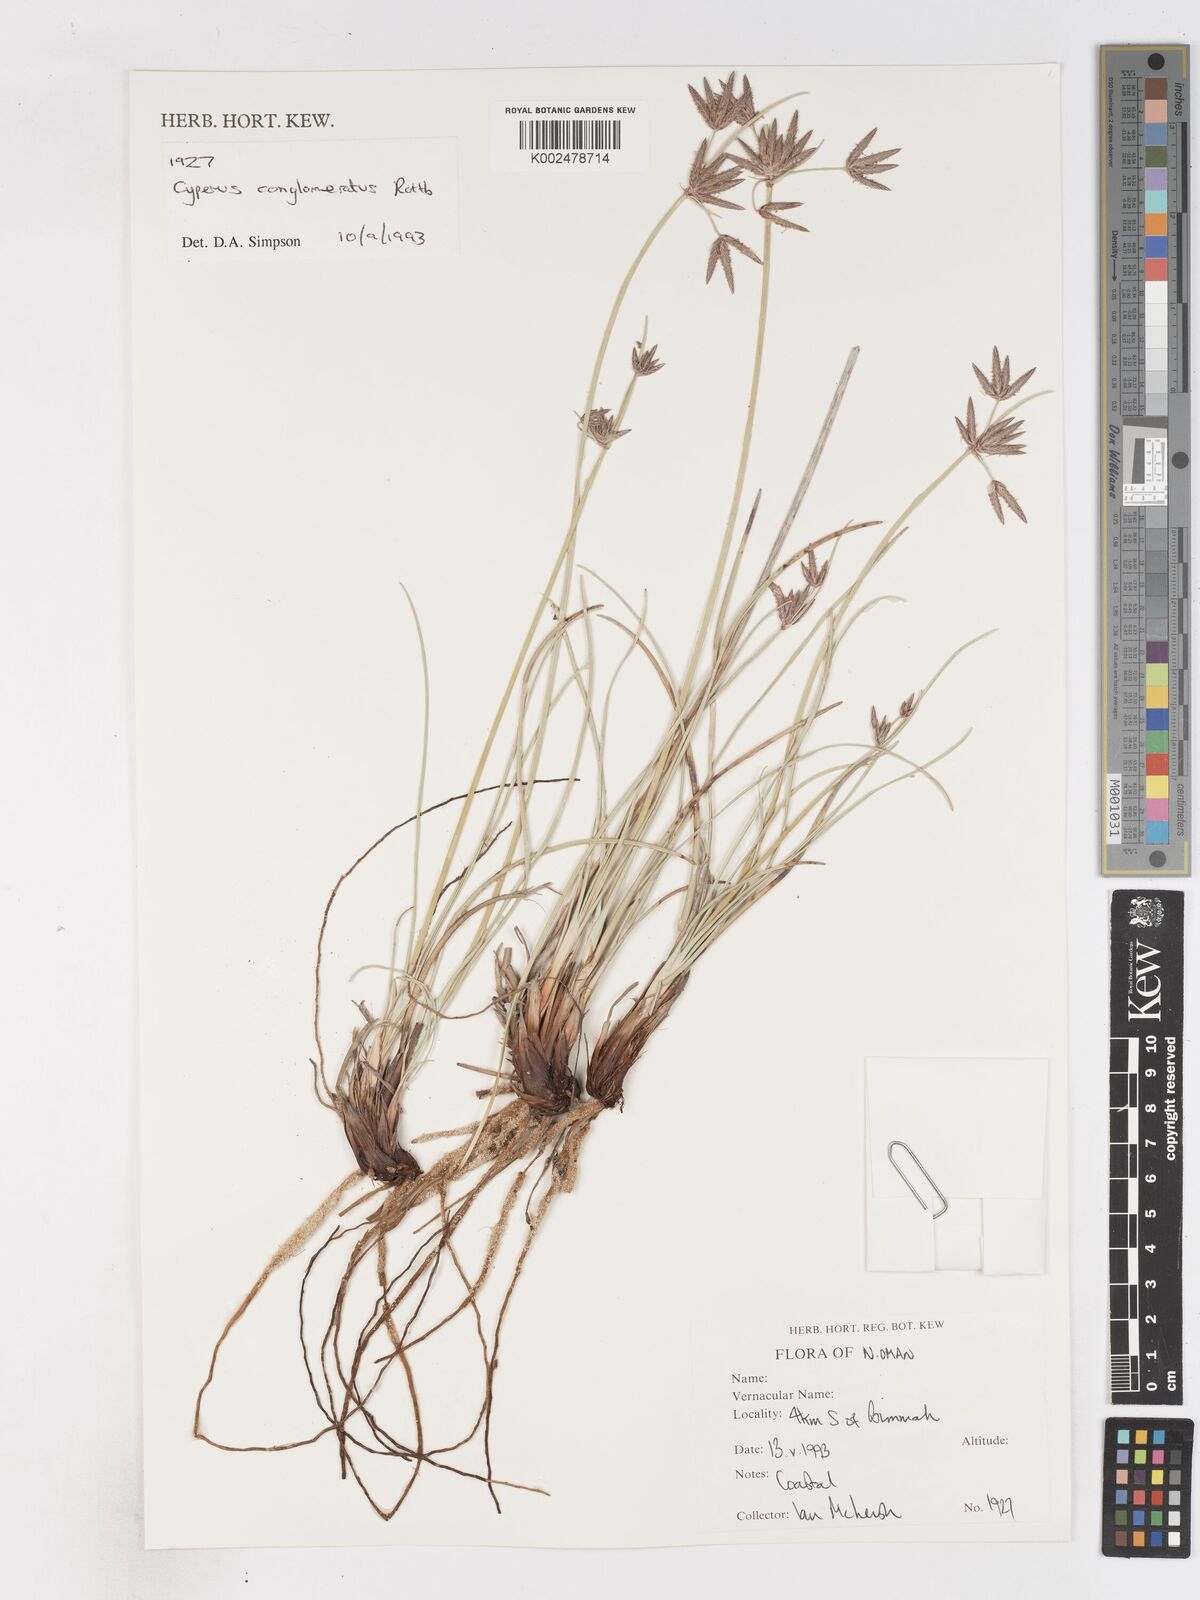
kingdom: Plantae
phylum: Tracheophyta
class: Liliopsida
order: Poales
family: Cyperaceae
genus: Cyperus
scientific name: Cyperus conglomeratus
